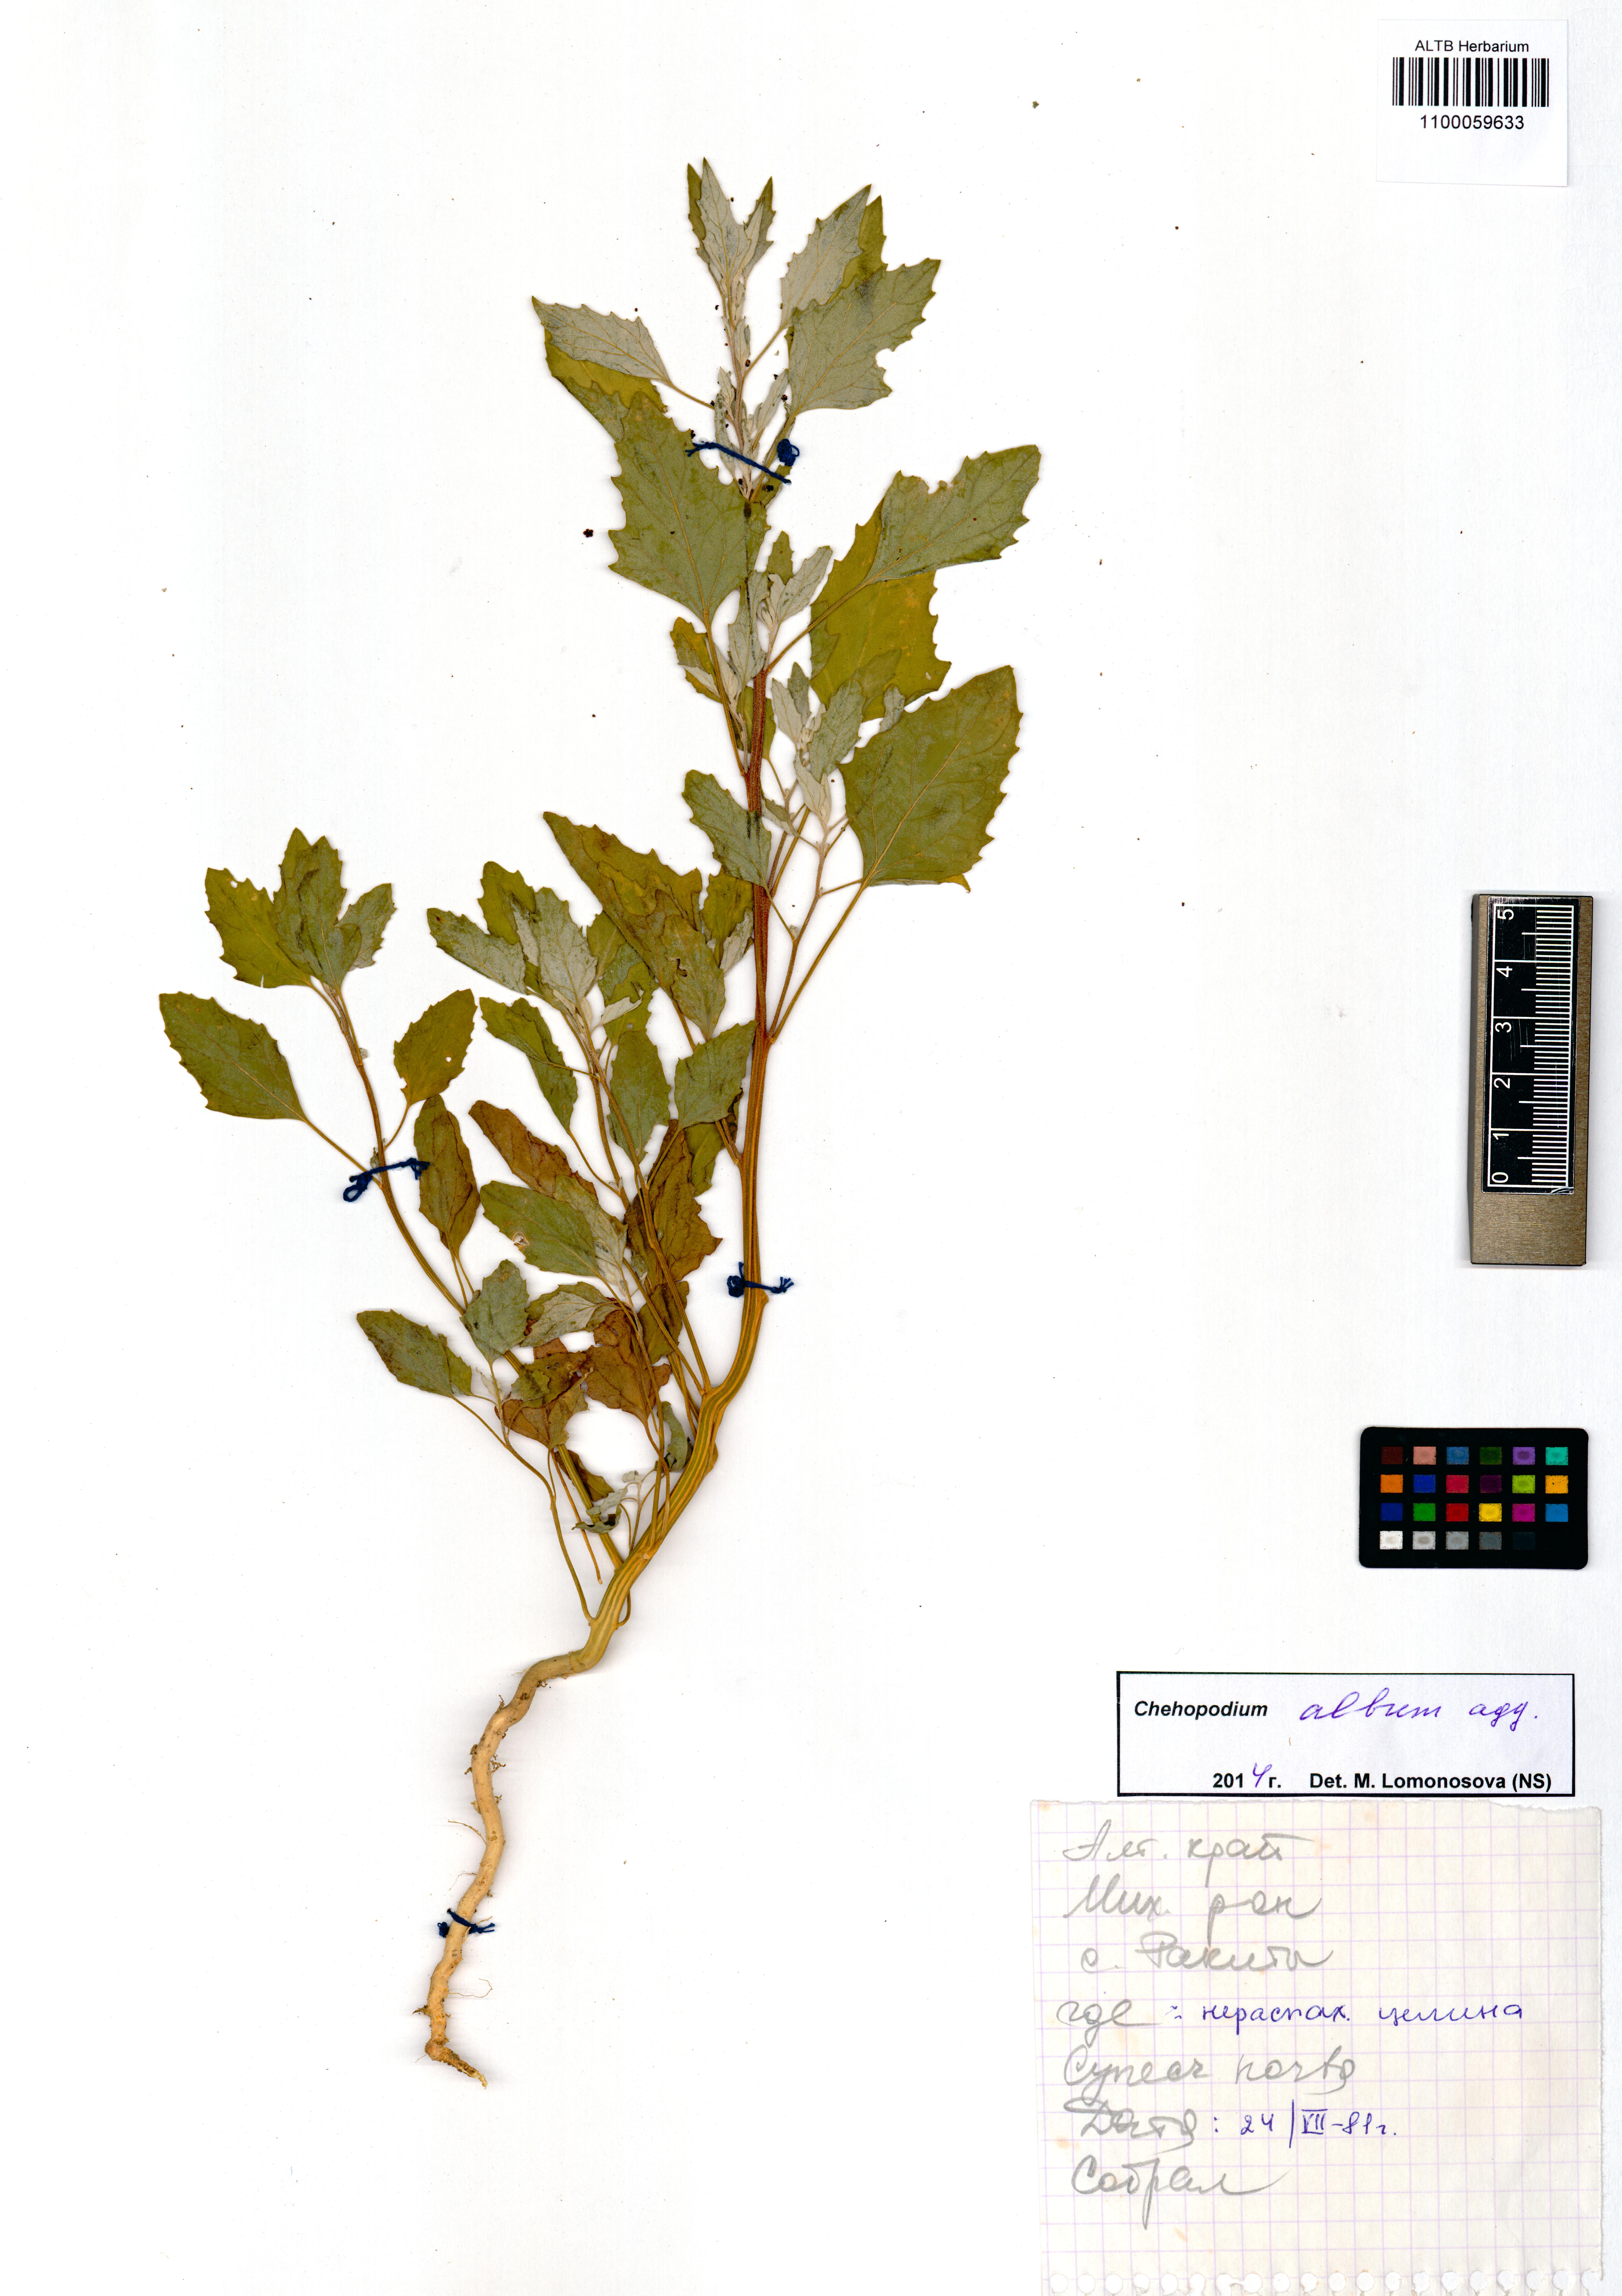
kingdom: Plantae
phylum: Tracheophyta
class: Magnoliopsida
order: Caryophyllales
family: Amaranthaceae
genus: Chenopodium
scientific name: Chenopodium album
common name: Fat-hen
